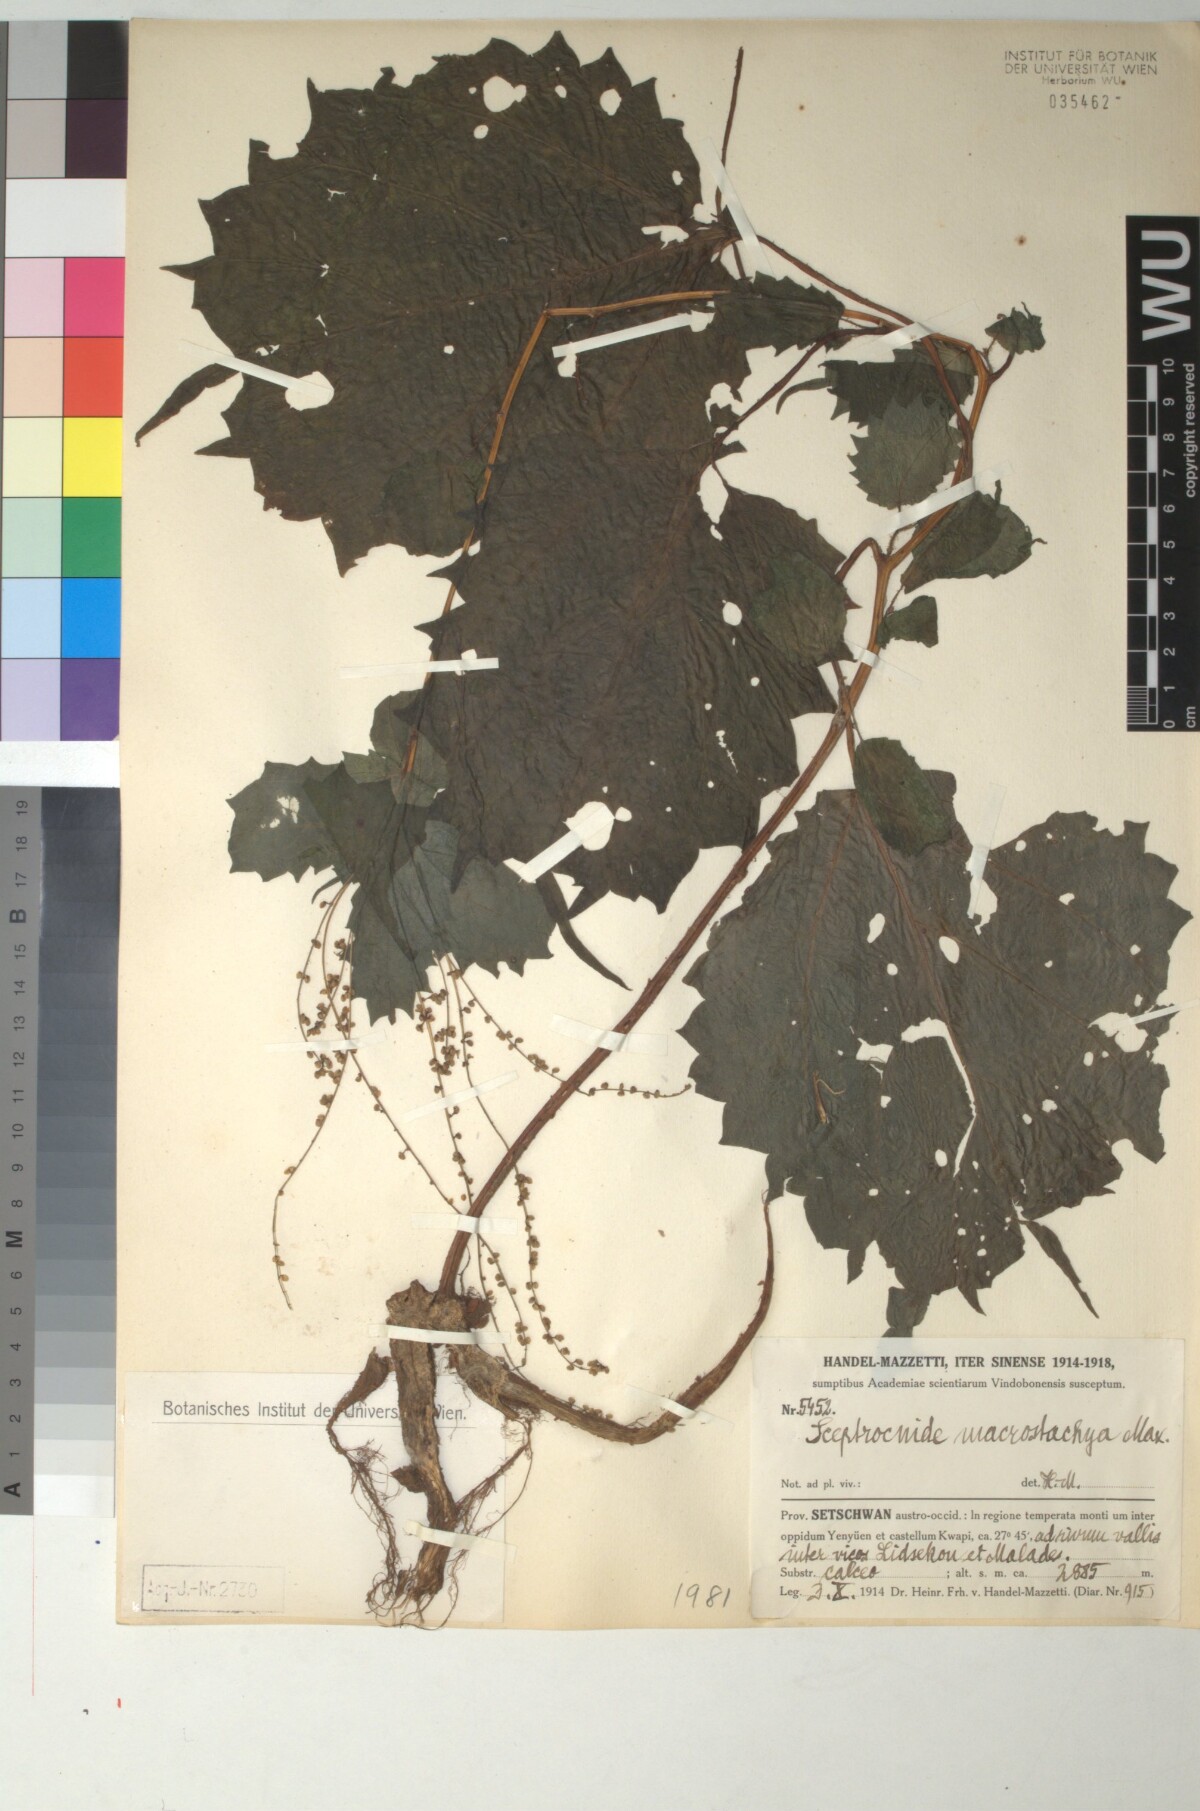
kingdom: Plantae
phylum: Tracheophyta
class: Magnoliopsida
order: Rosales
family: Urticaceae
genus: Laportea
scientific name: Laportea cuspidata
